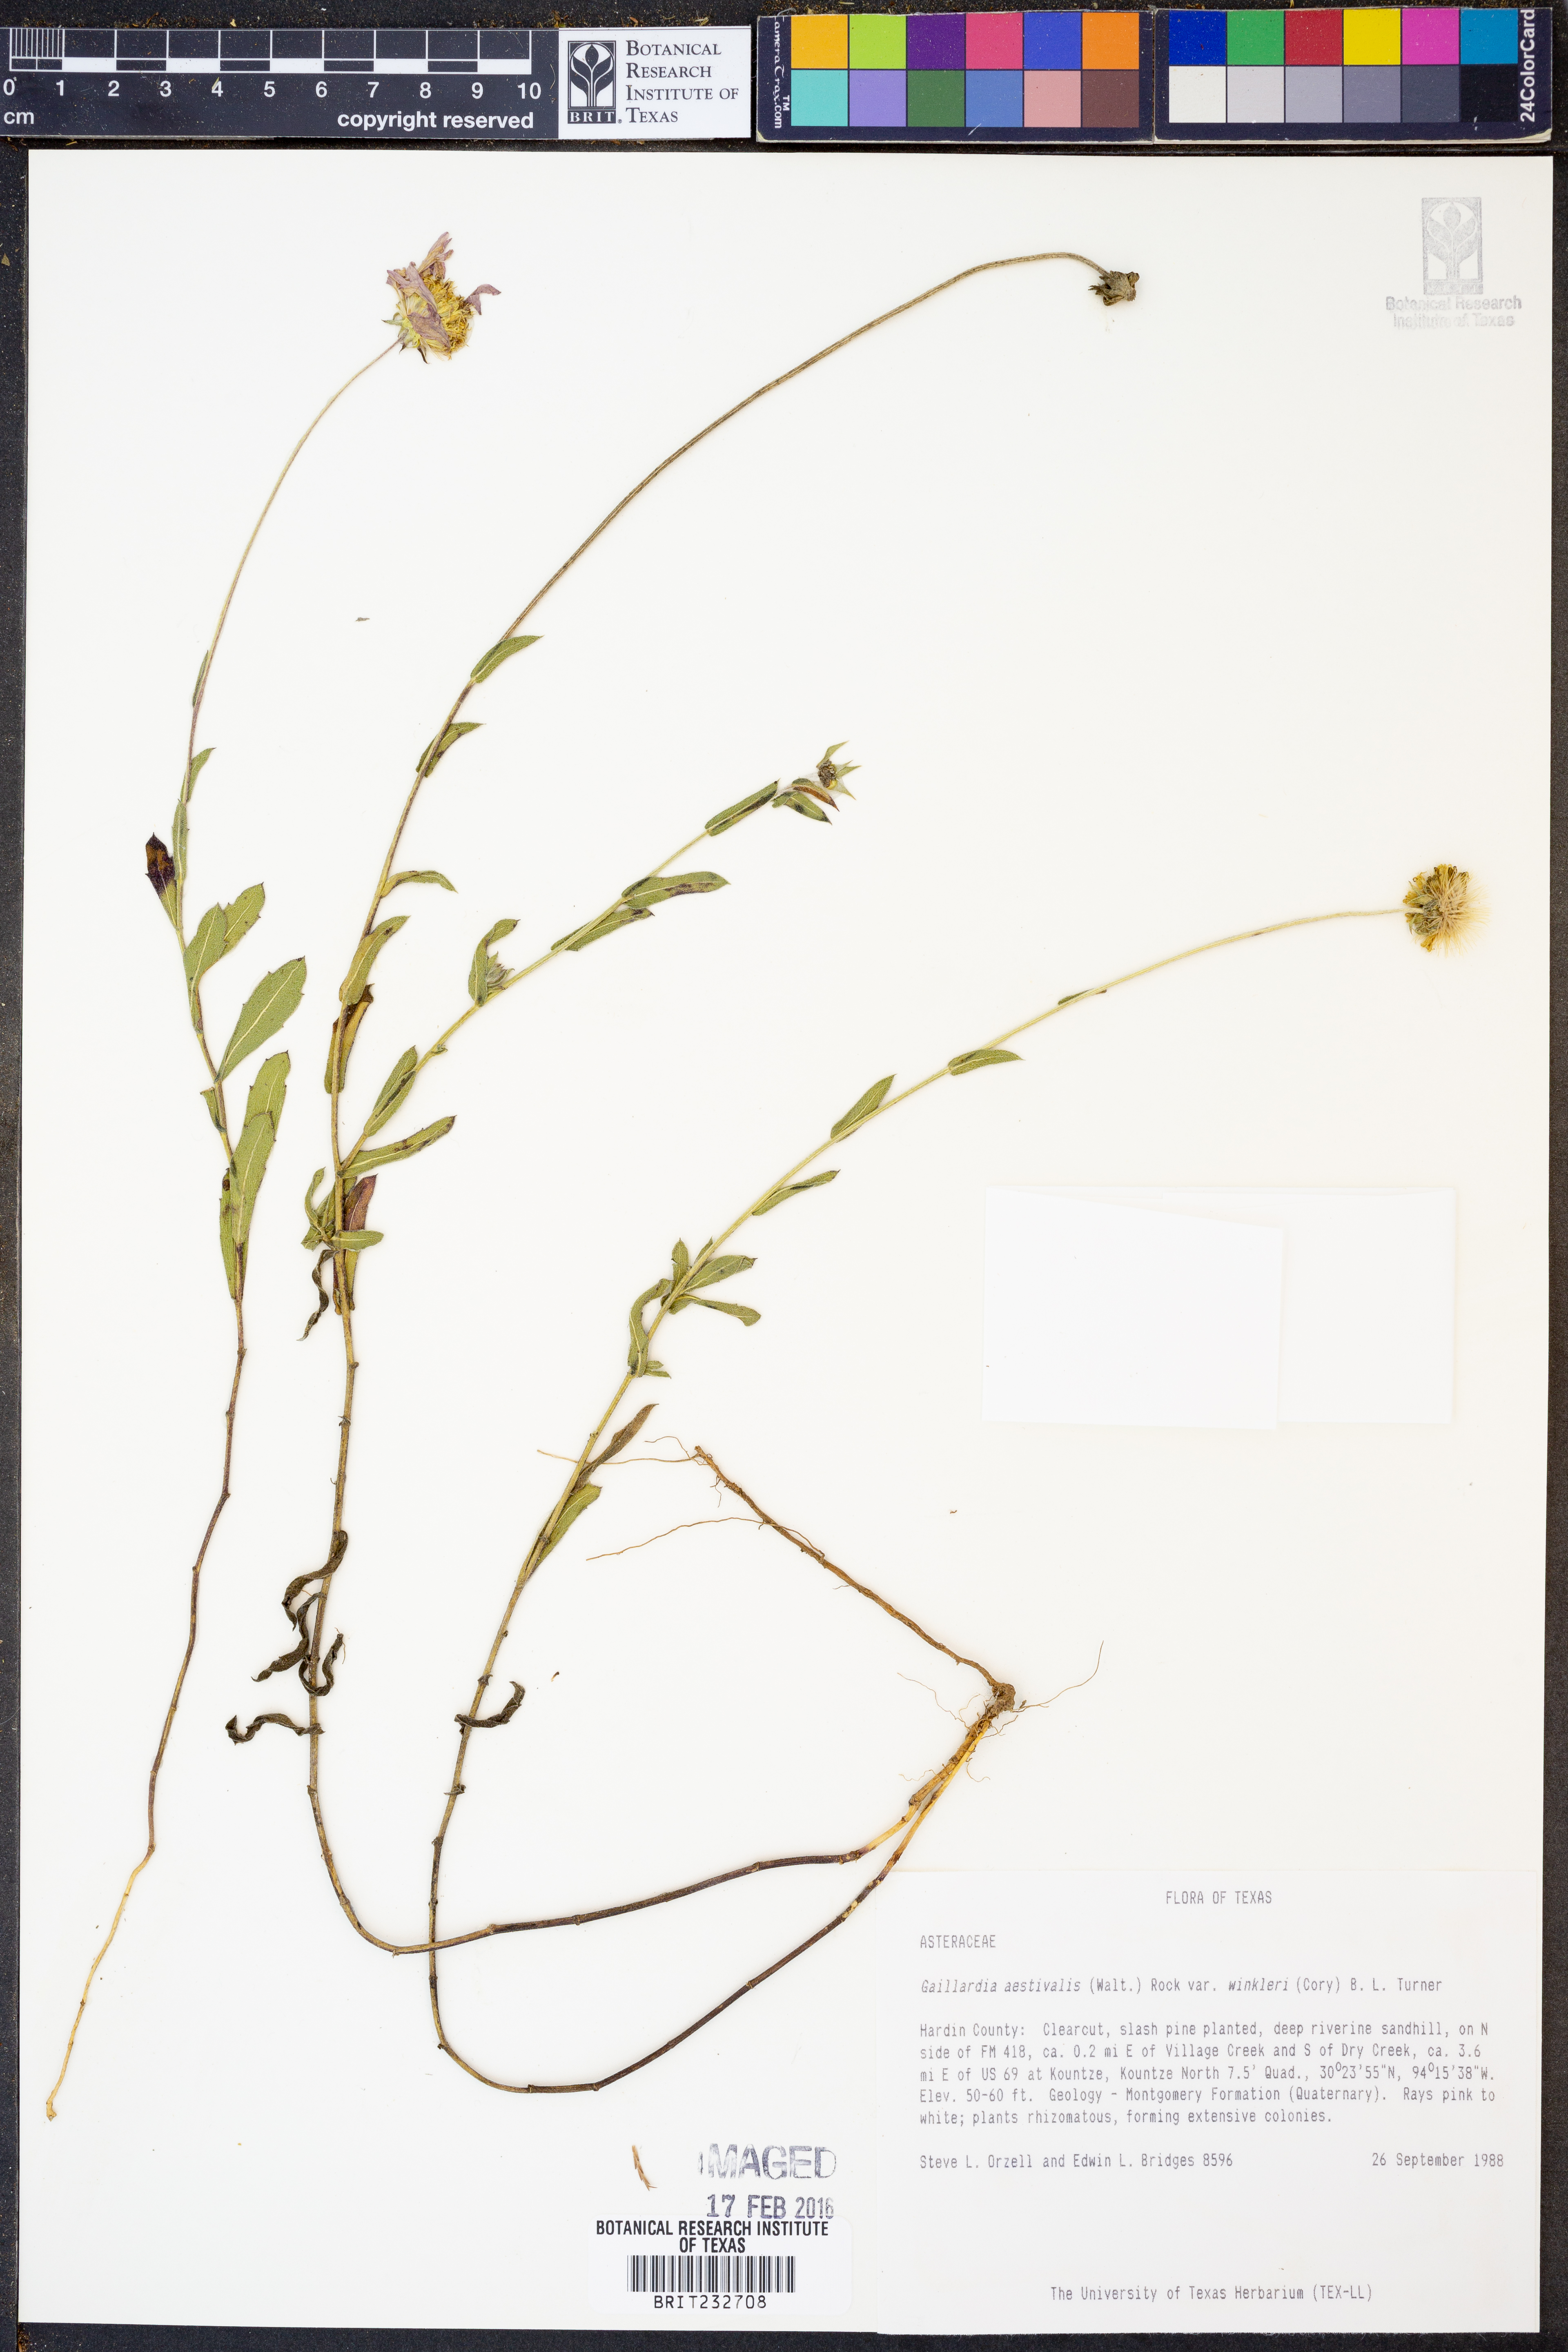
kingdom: Plantae
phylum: Tracheophyta
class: Magnoliopsida
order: Asterales
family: Asteraceae
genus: Gaillardia
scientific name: Gaillardia aestivalis
